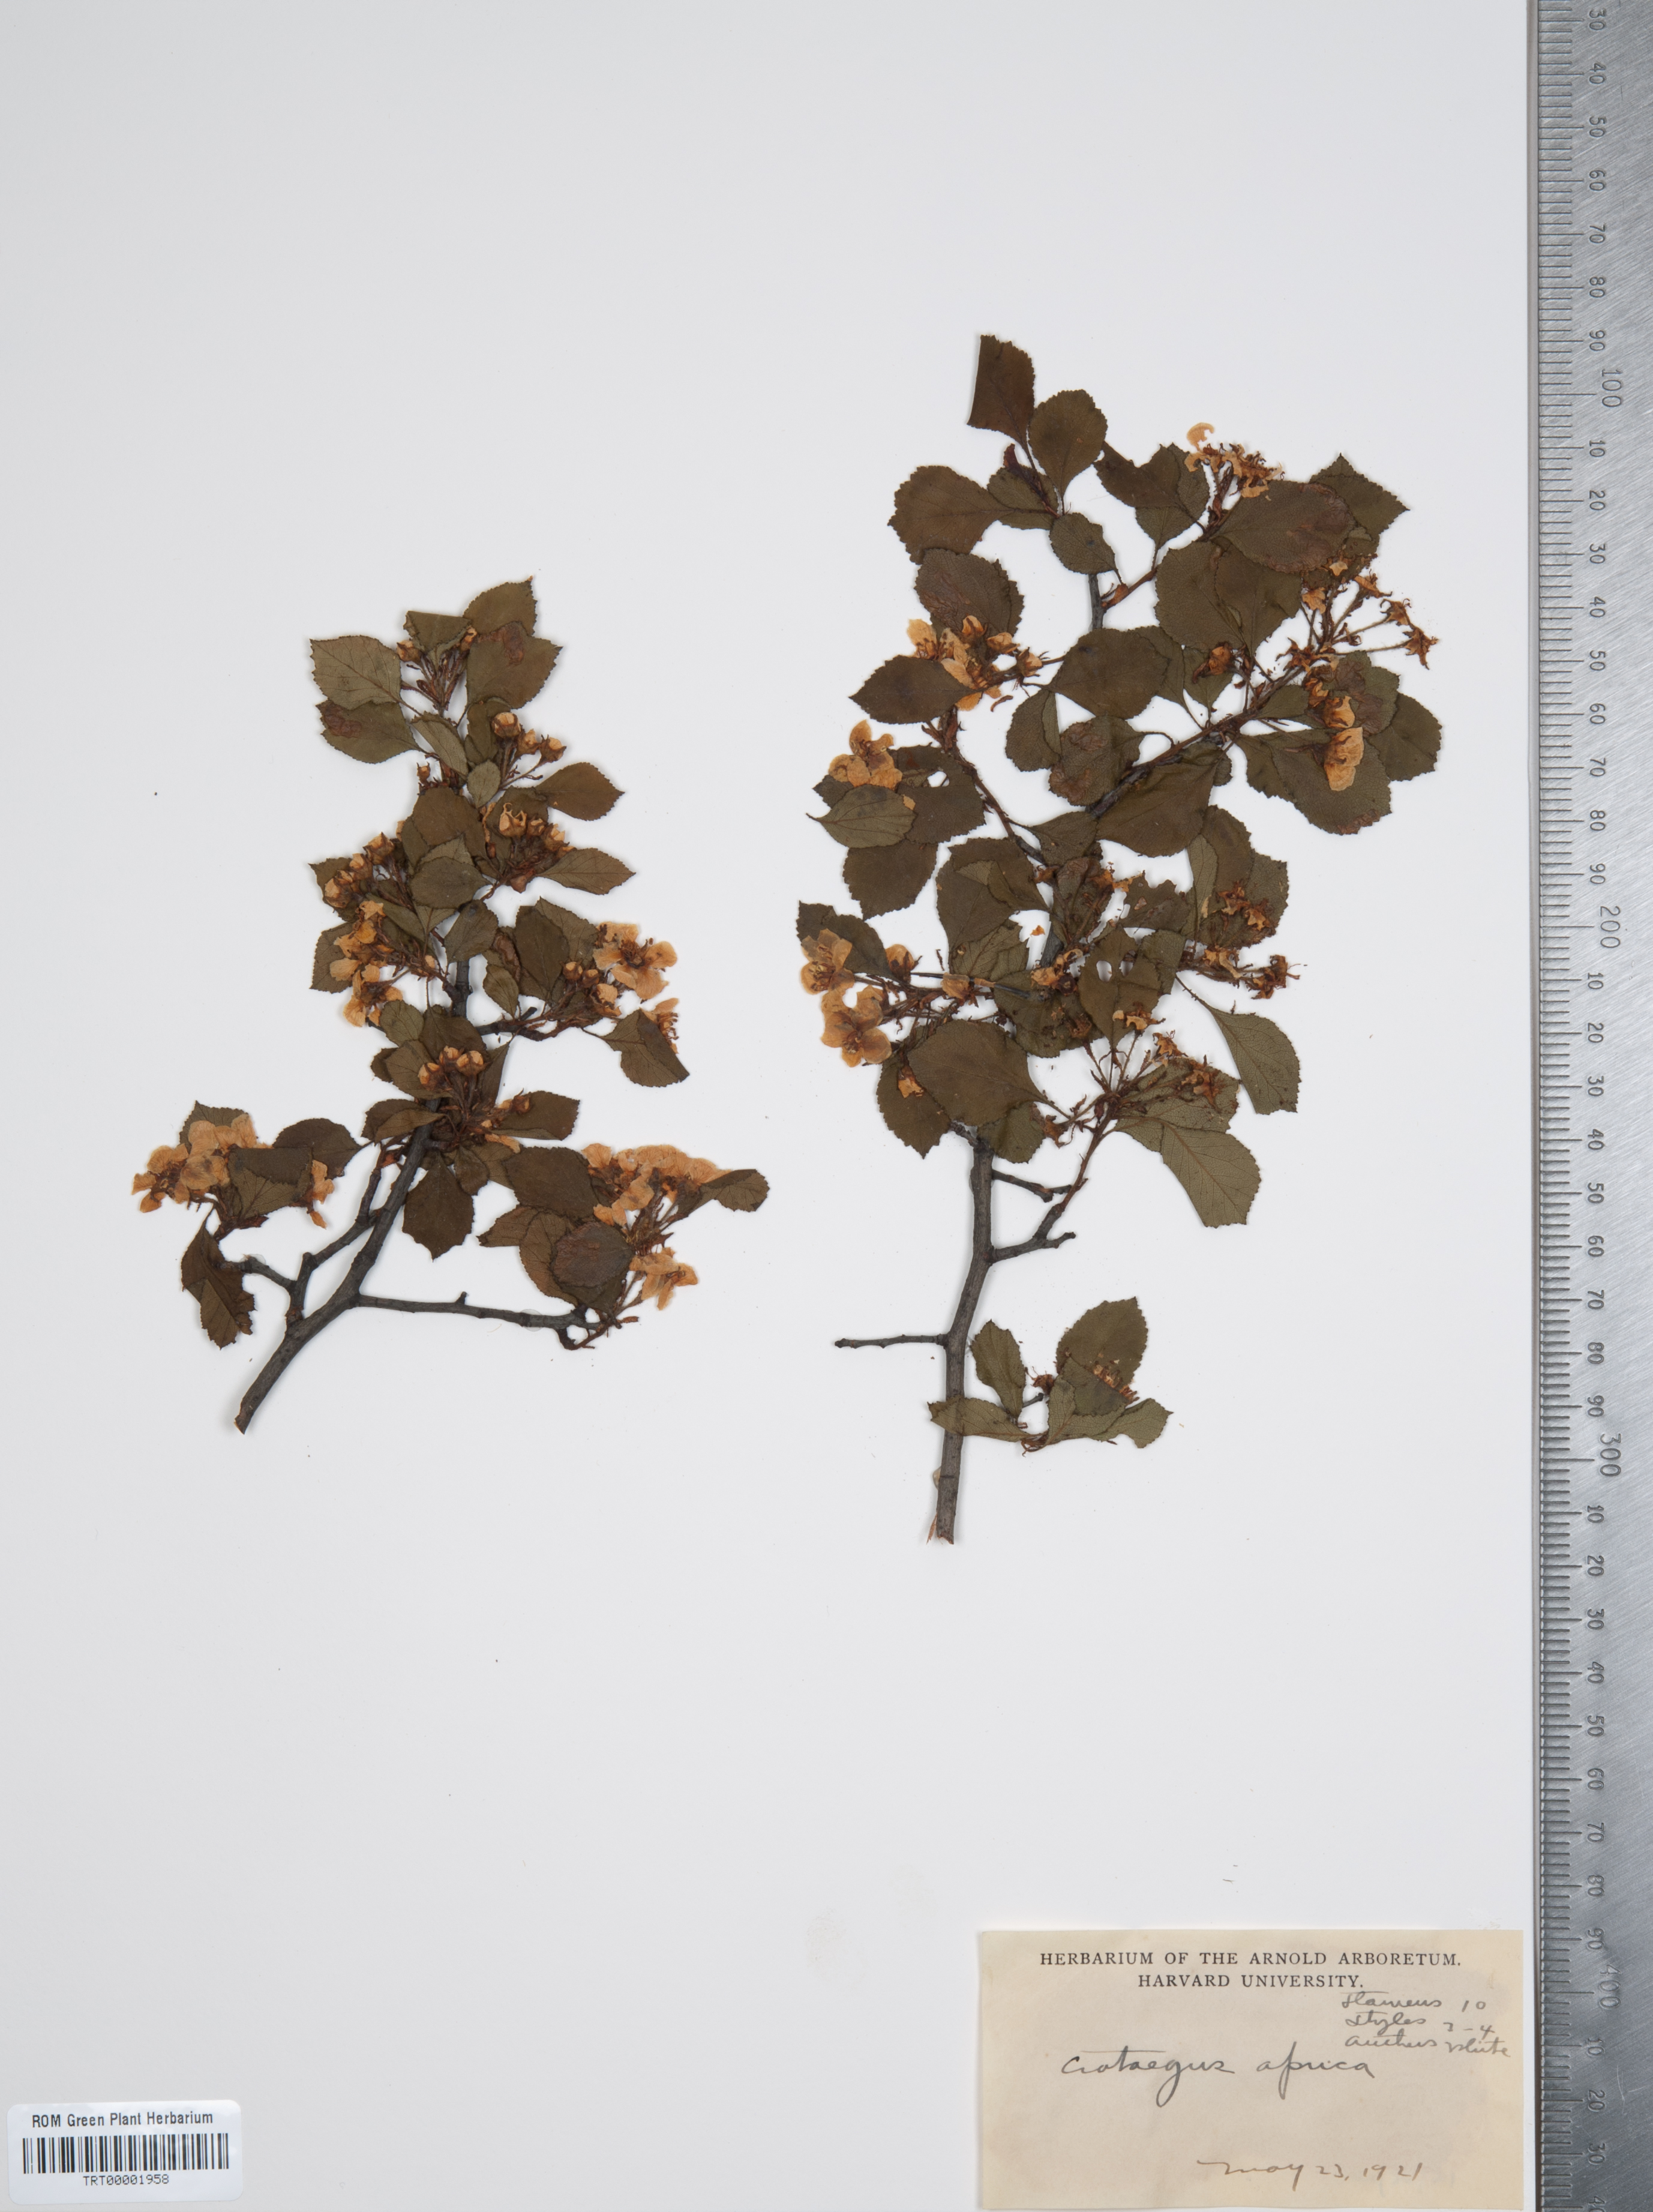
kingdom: Plantae
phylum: Tracheophyta
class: Magnoliopsida
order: Rosales
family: Rosaceae
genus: Crataegus
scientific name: Crataegus aprica
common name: Sunny hawthorn
